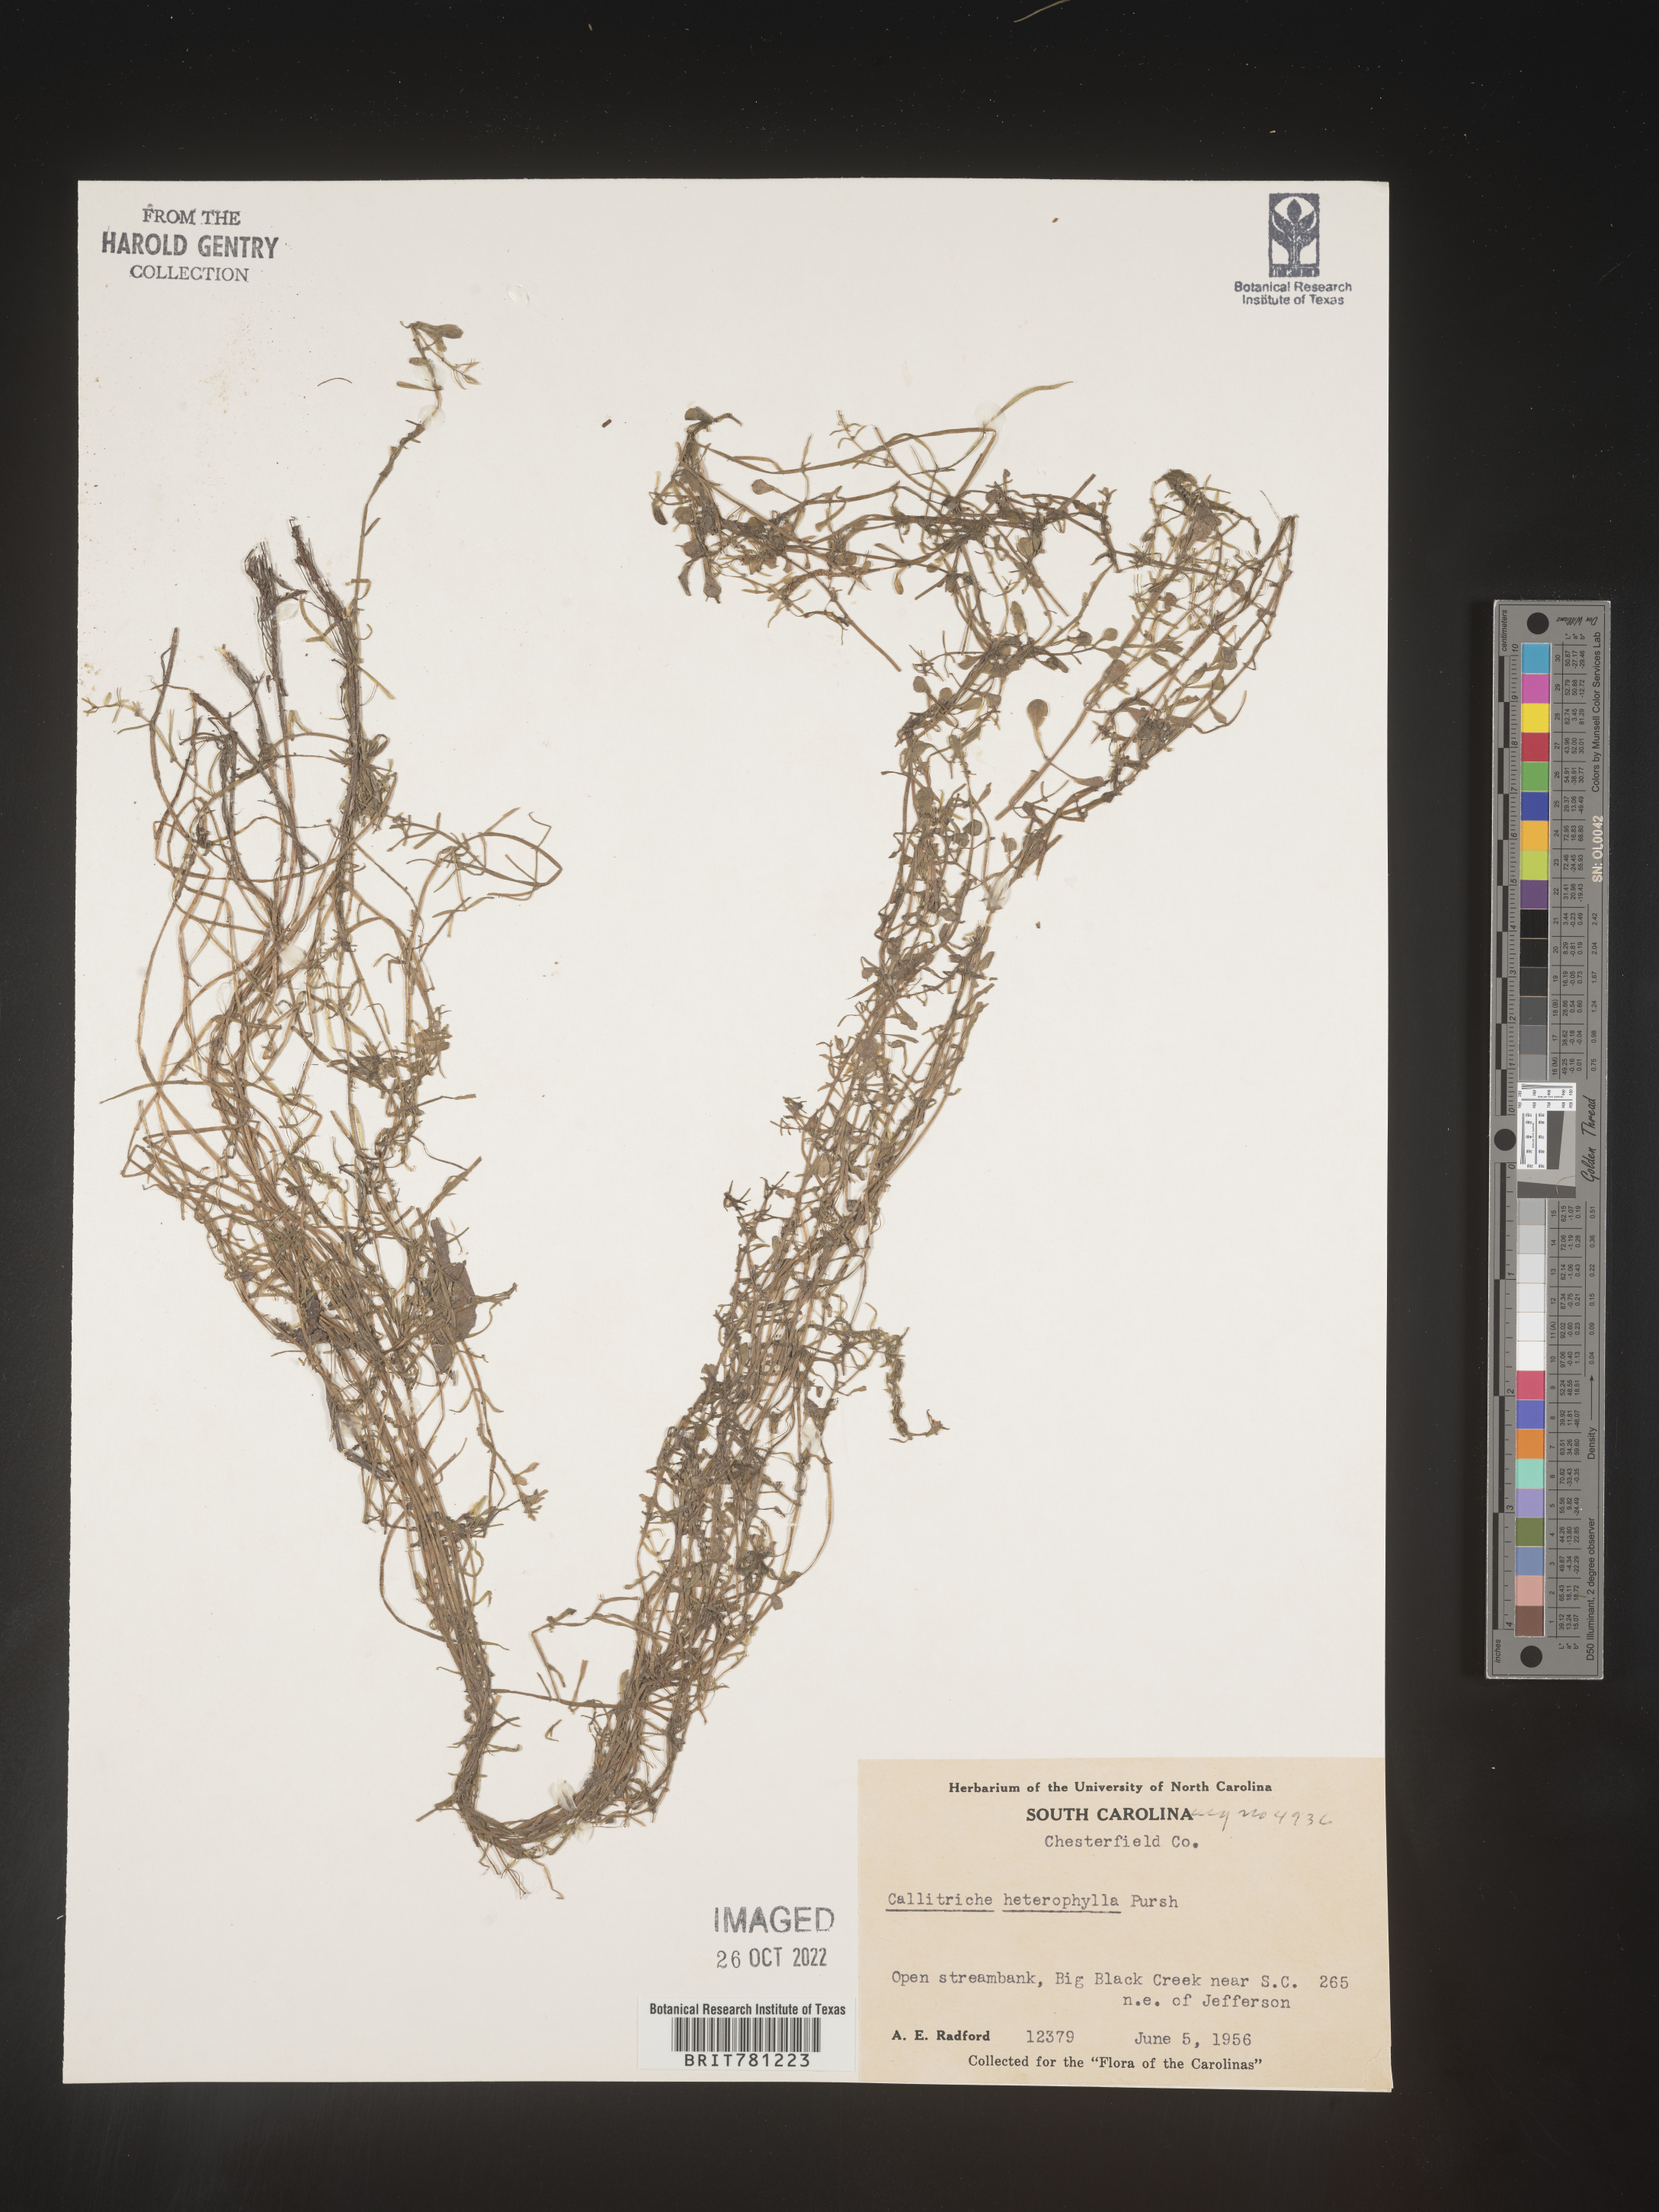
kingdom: Plantae
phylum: Tracheophyta
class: Magnoliopsida
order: Lamiales
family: Plantaginaceae
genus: Callitriche
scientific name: Callitriche heterophylla
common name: Two-headed water-starwort
